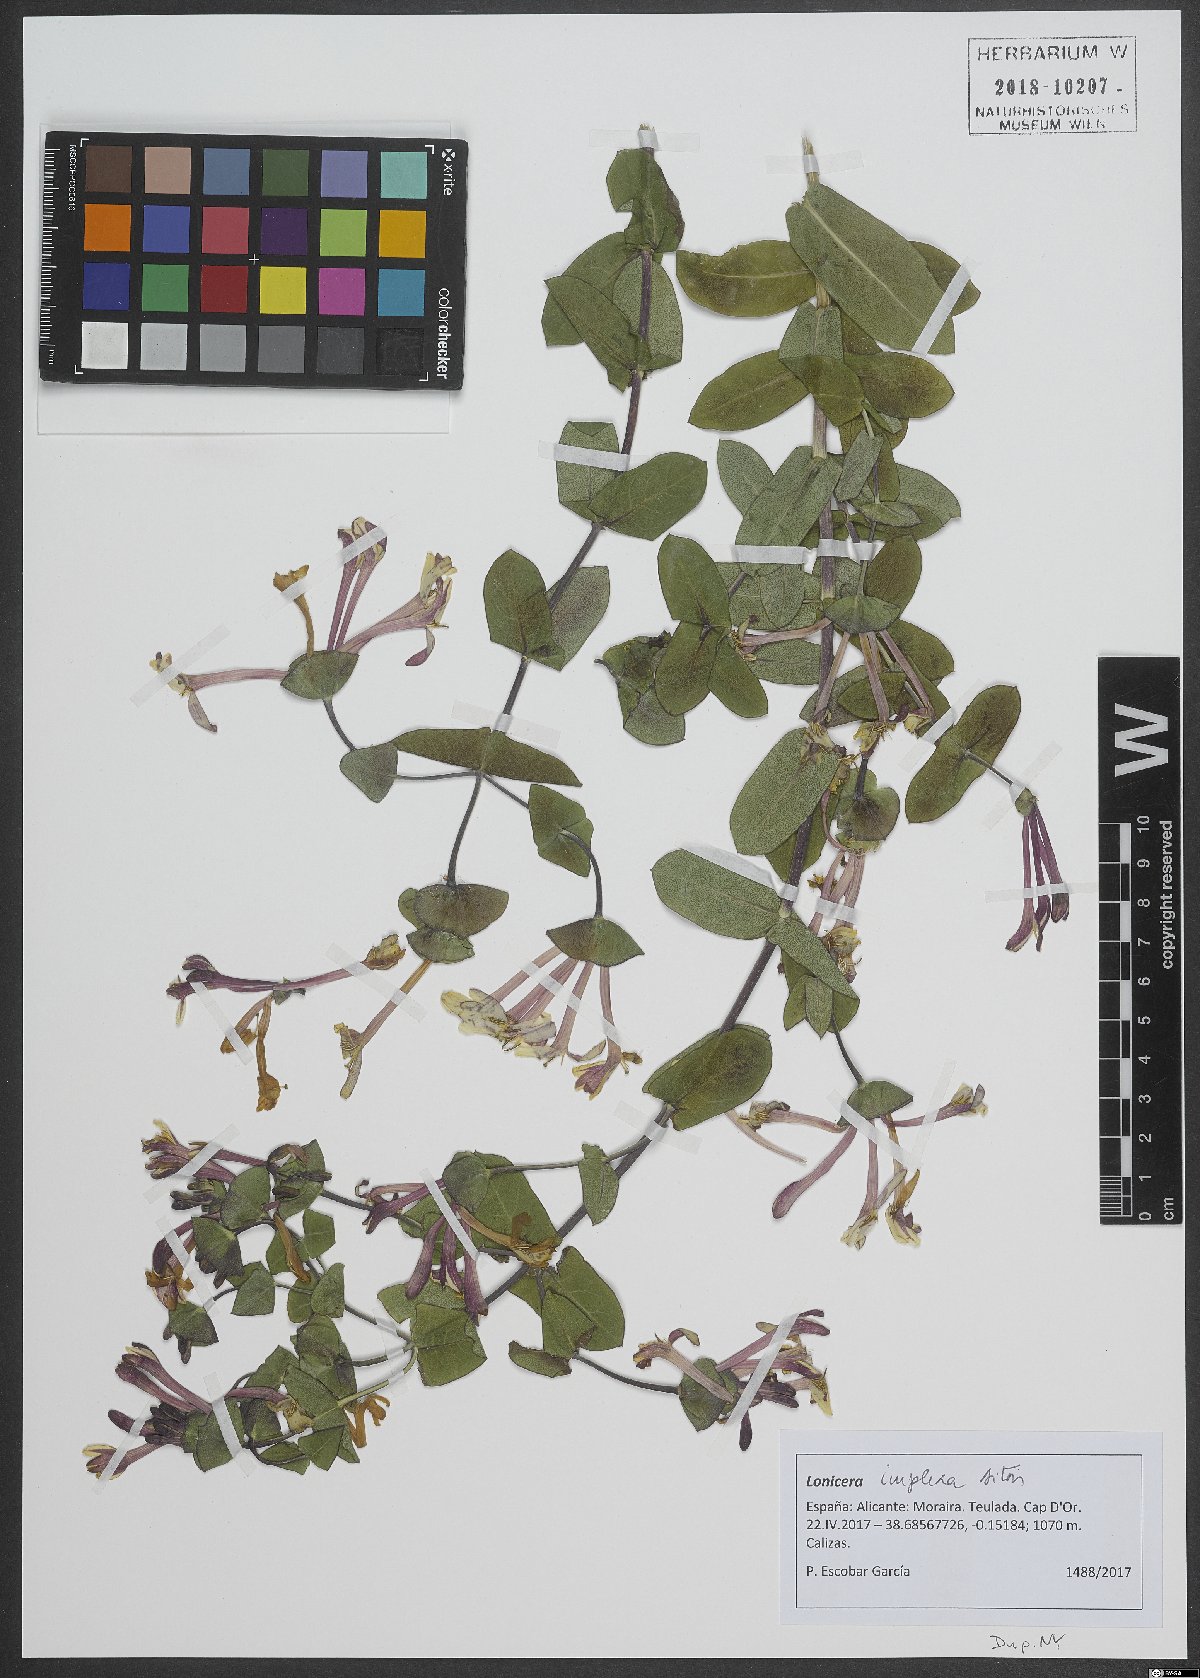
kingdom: Plantae
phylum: Tracheophyta
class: Magnoliopsida
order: Dipsacales
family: Caprifoliaceae
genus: Lonicera
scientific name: Lonicera implexa
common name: Minorca honeysuckle
